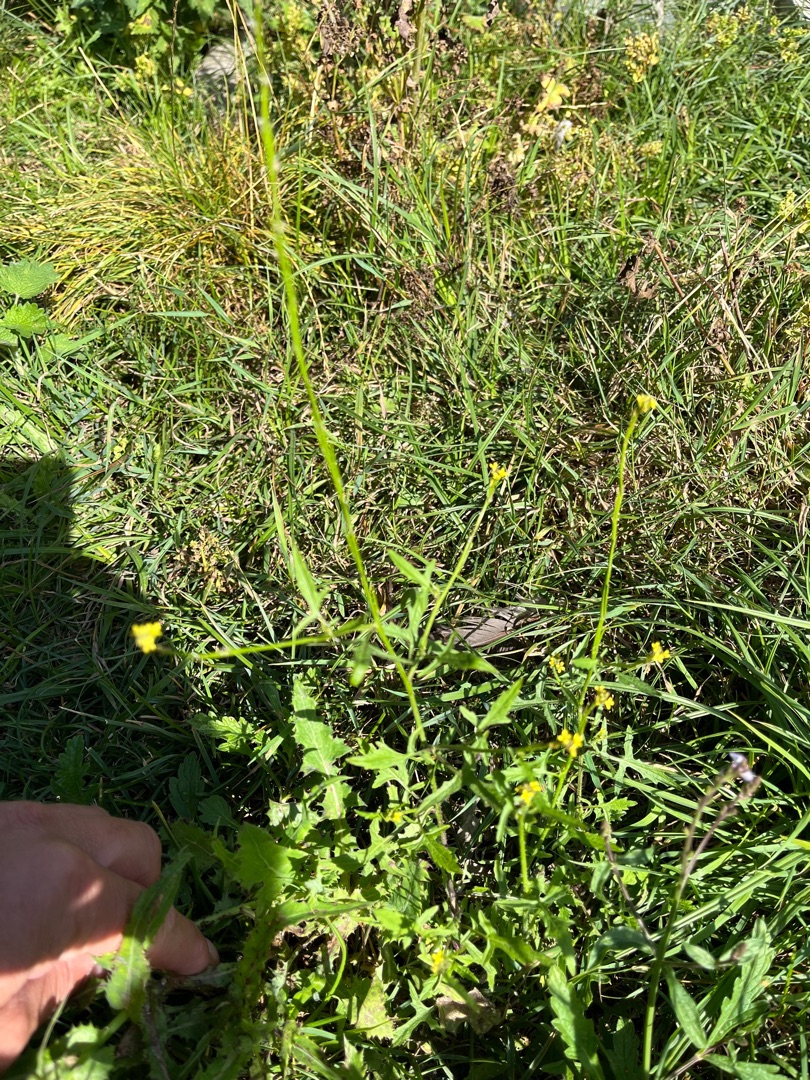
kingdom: Plantae
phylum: Tracheophyta
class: Magnoliopsida
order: Brassicales
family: Brassicaceae
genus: Sisymbrium
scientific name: Sisymbrium officinale
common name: Rank vejsennep
